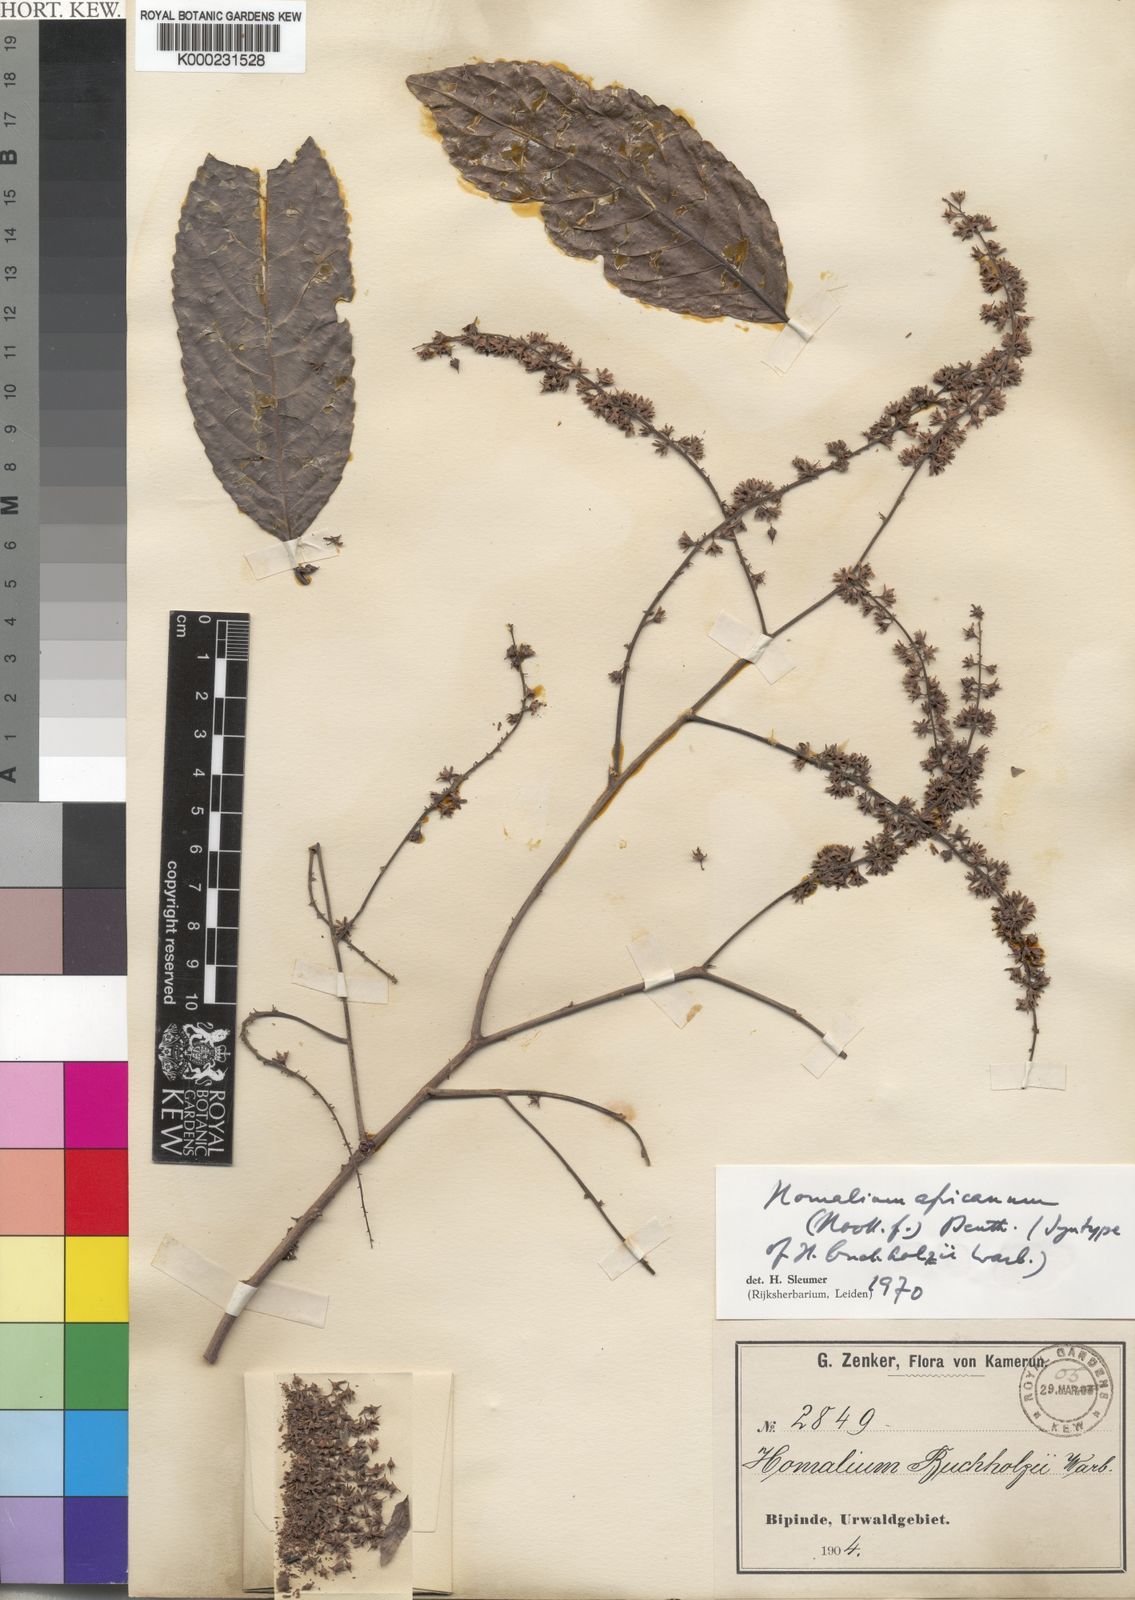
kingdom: Plantae
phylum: Tracheophyta
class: Magnoliopsida
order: Malpighiales
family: Salicaceae
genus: Homalium
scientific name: Homalium africanum
